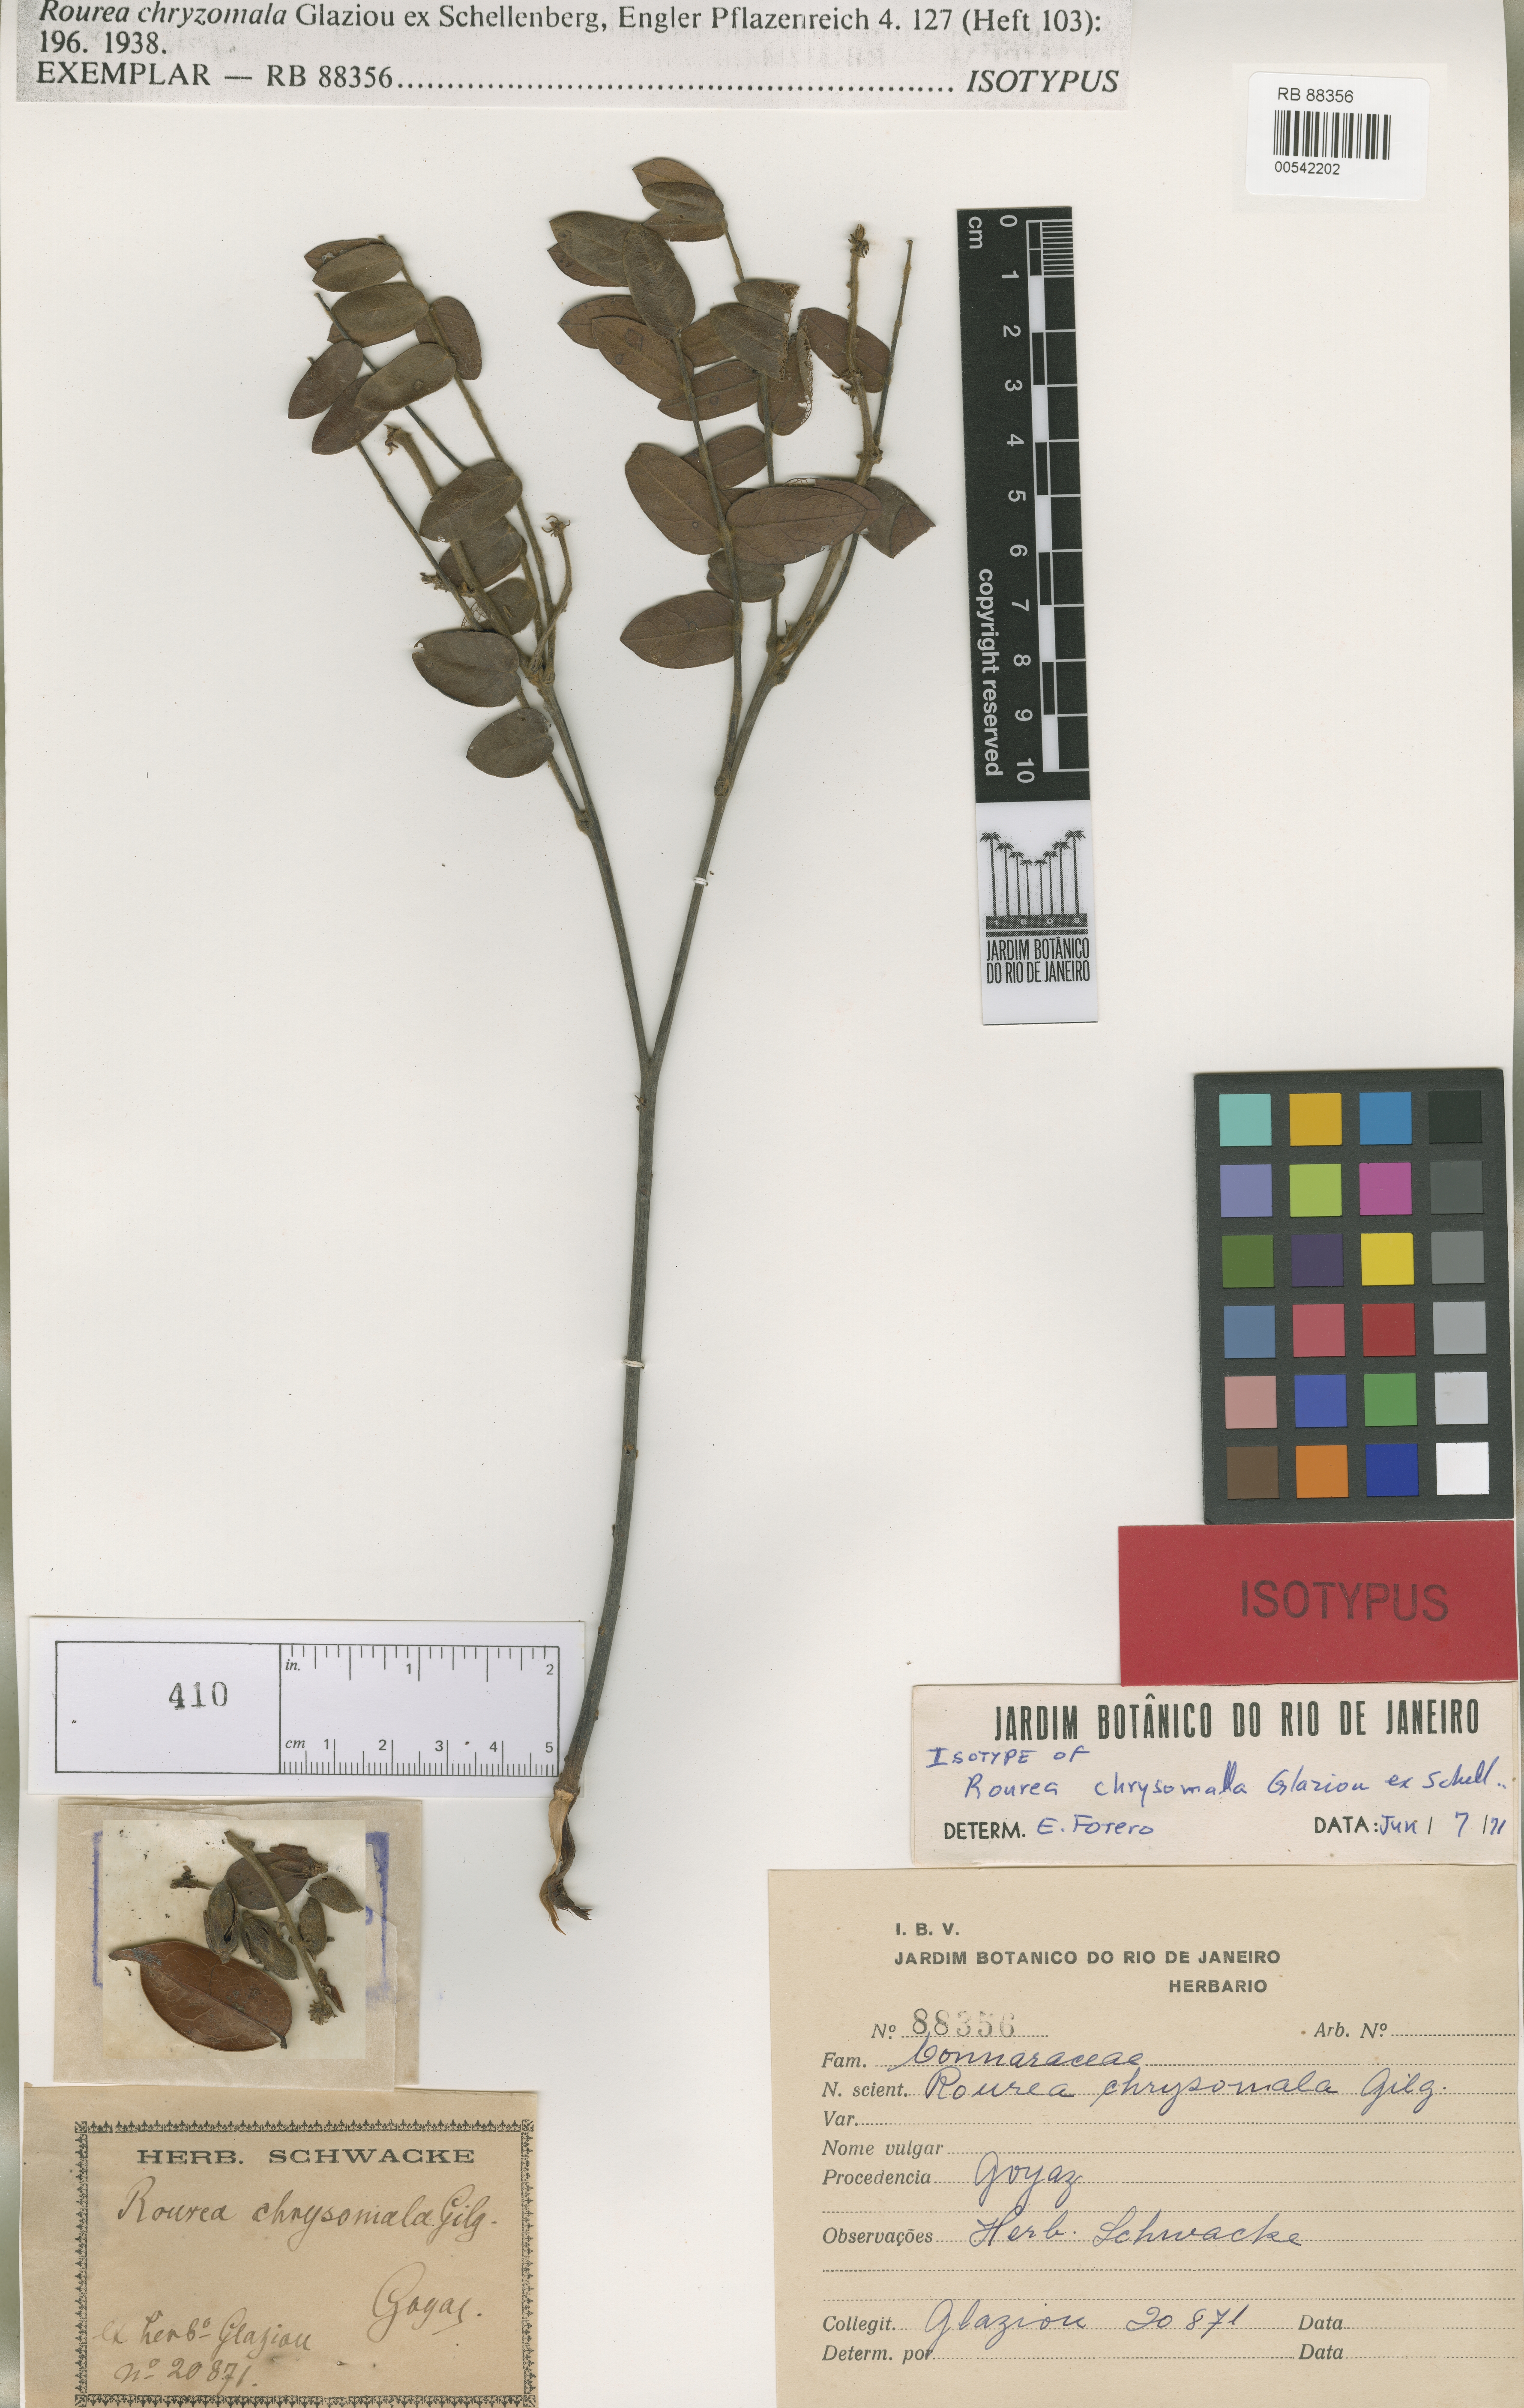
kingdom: Plantae
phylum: Tracheophyta
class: Magnoliopsida
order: Oxalidales
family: Connaraceae
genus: Rourea
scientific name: Rourea chrysomalla
